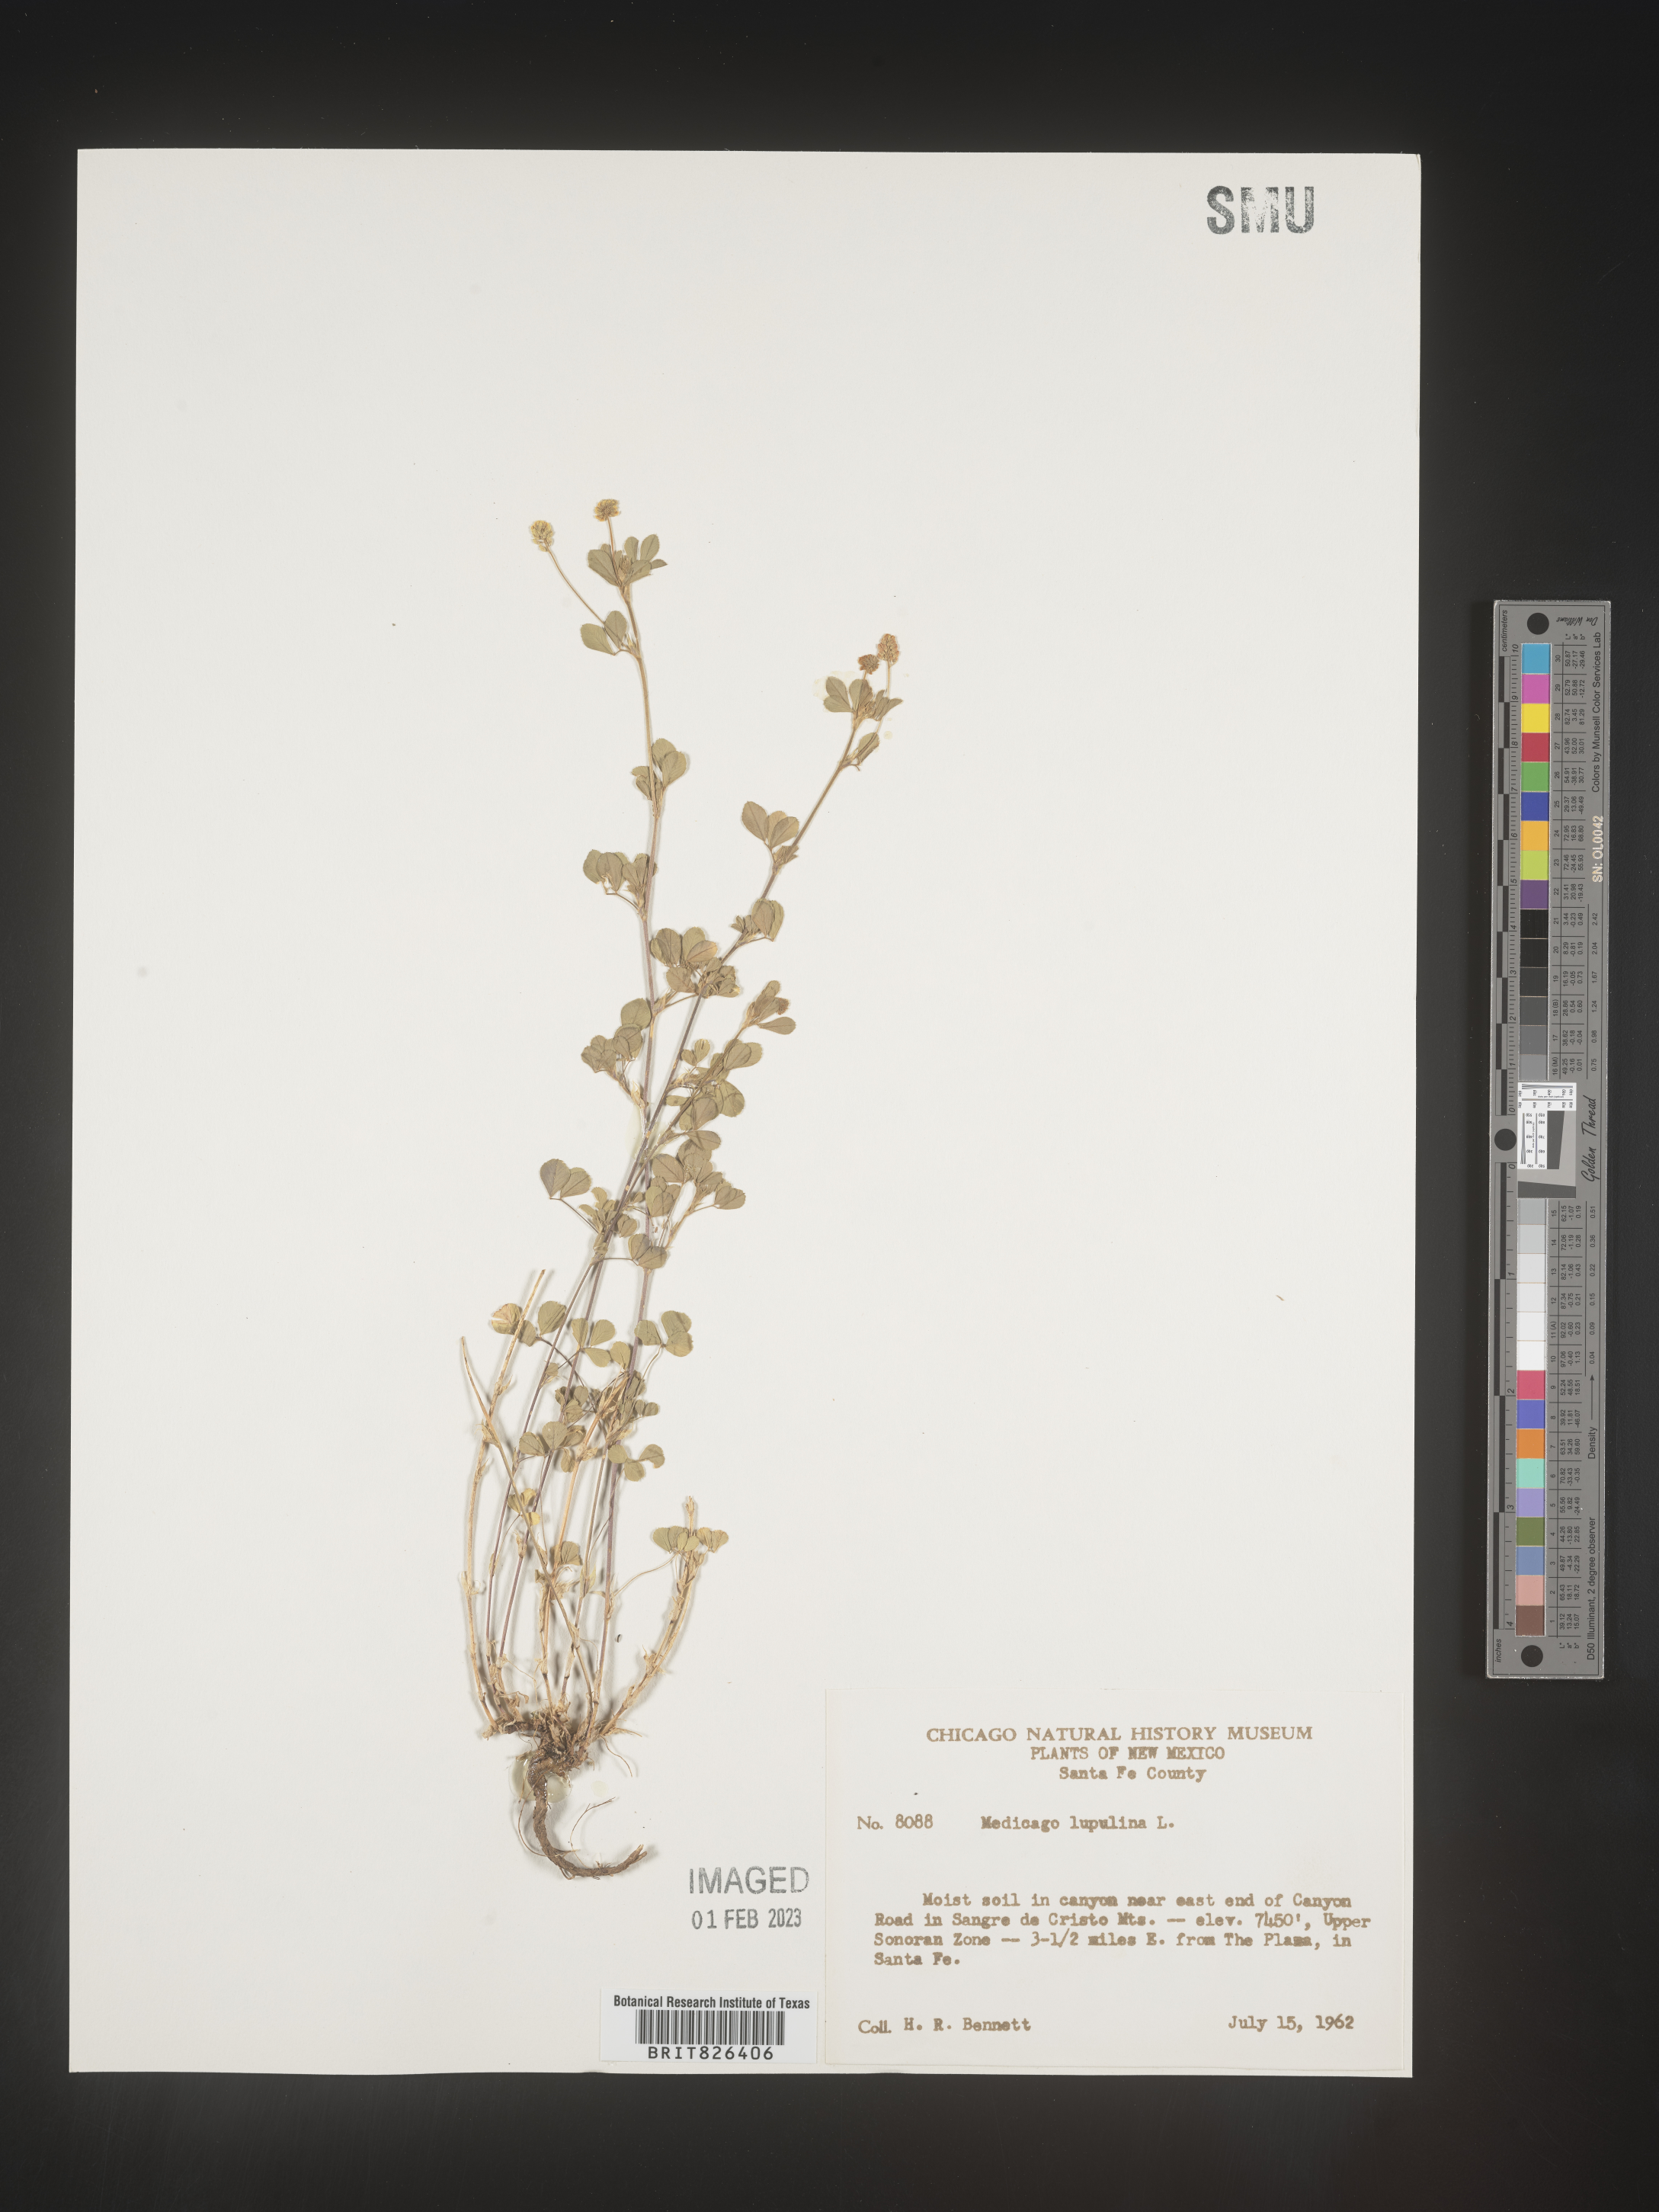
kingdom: Plantae
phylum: Tracheophyta
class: Magnoliopsida
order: Fabales
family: Fabaceae
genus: Medicago
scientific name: Medicago lupulina
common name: Black medick
